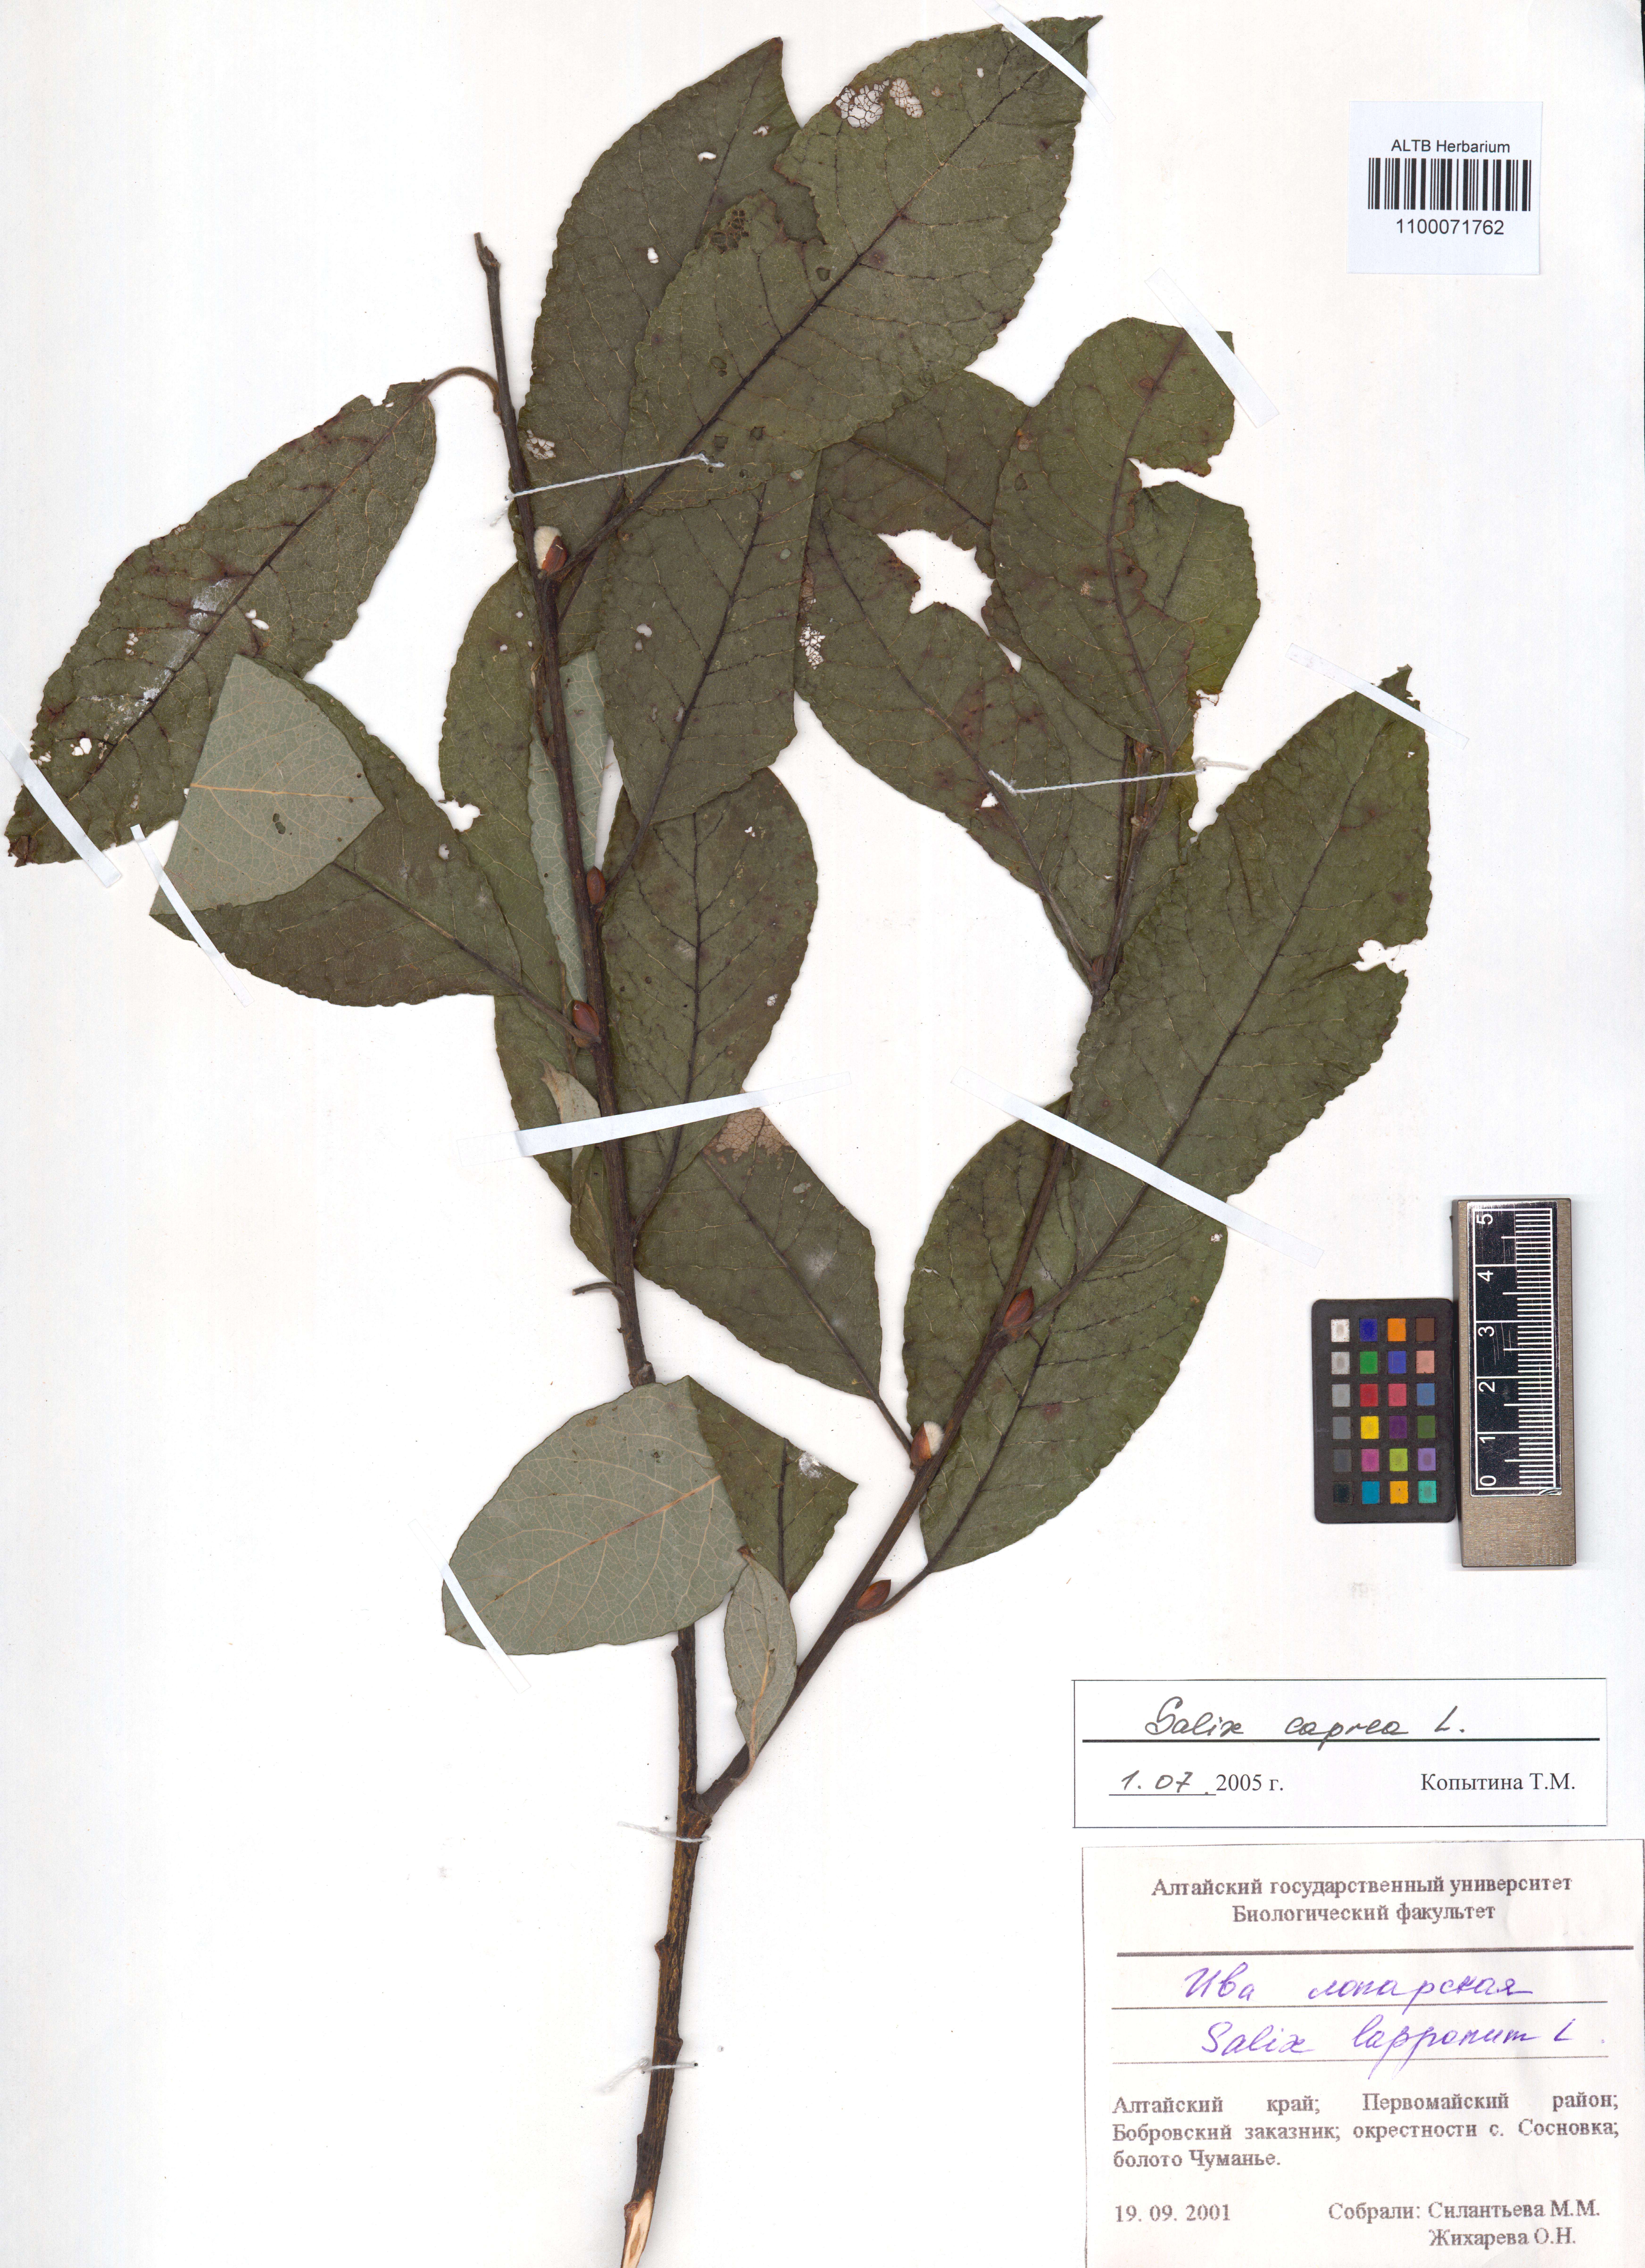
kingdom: Plantae
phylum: Tracheophyta
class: Magnoliopsida
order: Malpighiales
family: Salicaceae
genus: Salix
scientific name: Salix caprea
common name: Goat willow
